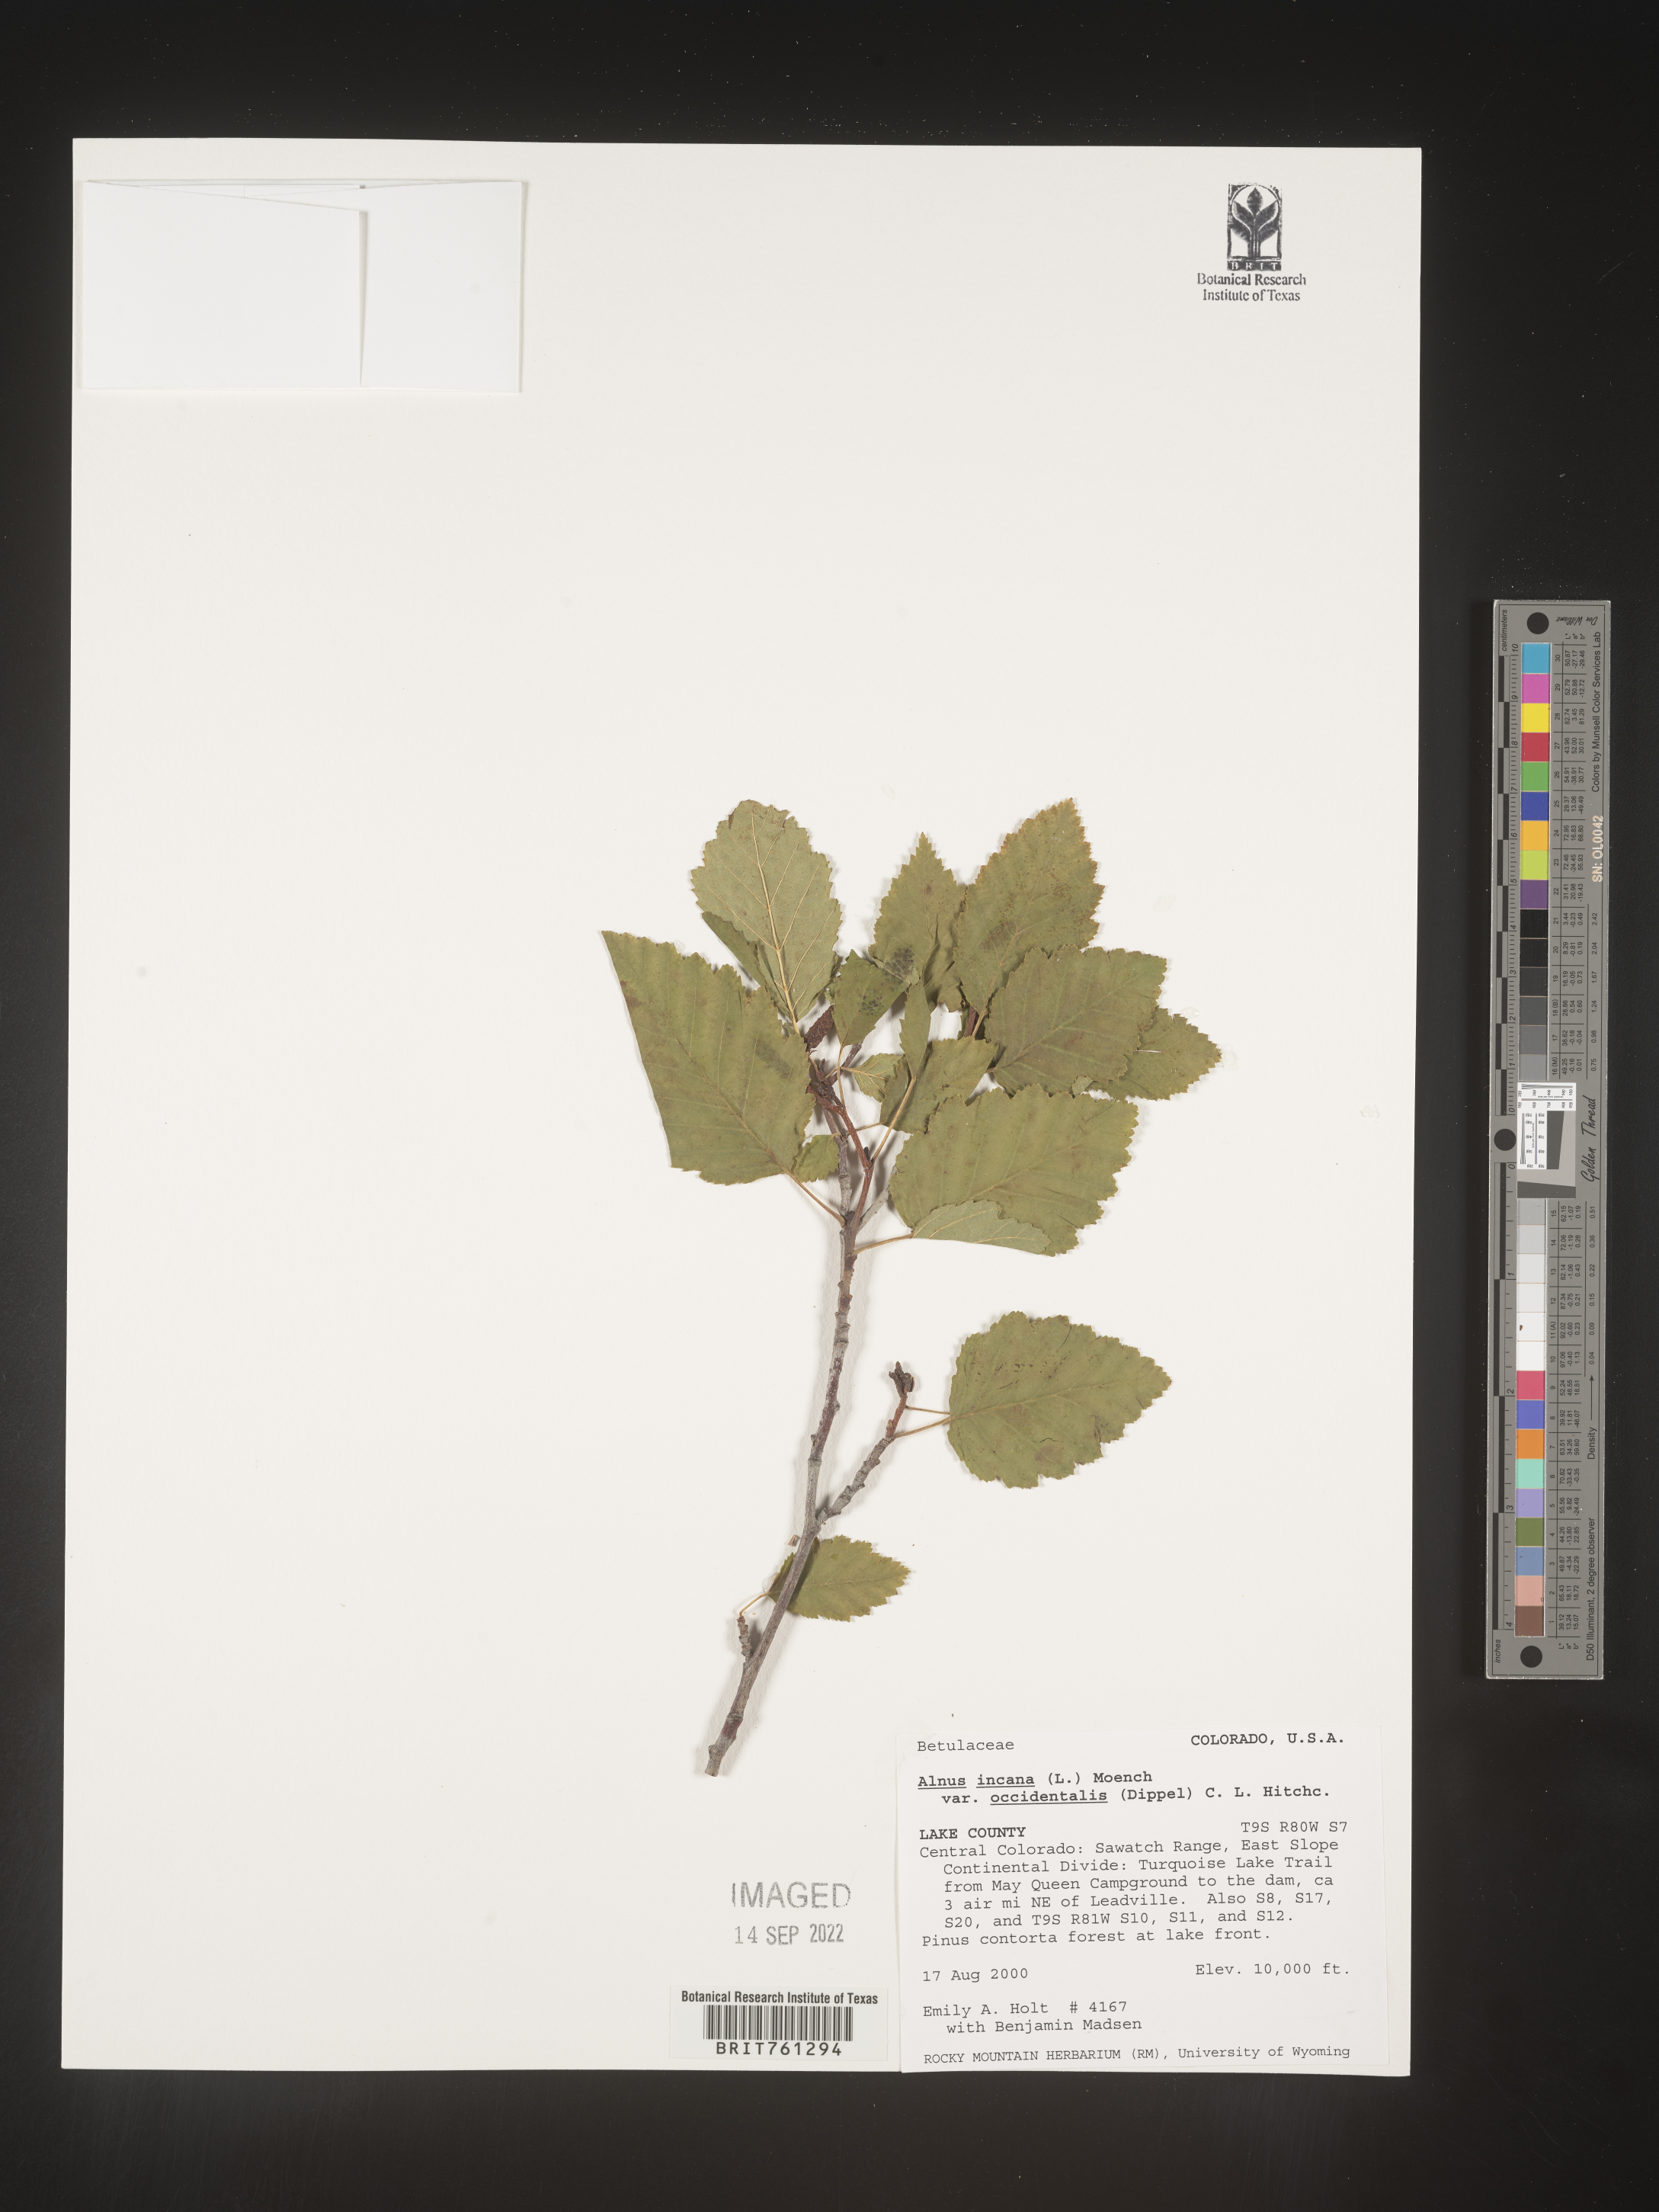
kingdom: Plantae
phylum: Tracheophyta
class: Magnoliopsida
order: Fagales
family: Betulaceae
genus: Alnus
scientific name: Alnus incana
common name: Grey alder
